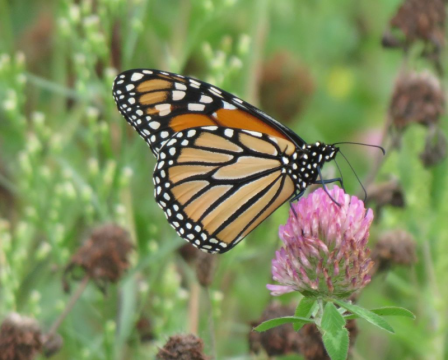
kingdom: Animalia
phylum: Arthropoda
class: Insecta
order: Lepidoptera
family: Nymphalidae
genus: Danaus
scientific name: Danaus plexippus
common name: Monarch
